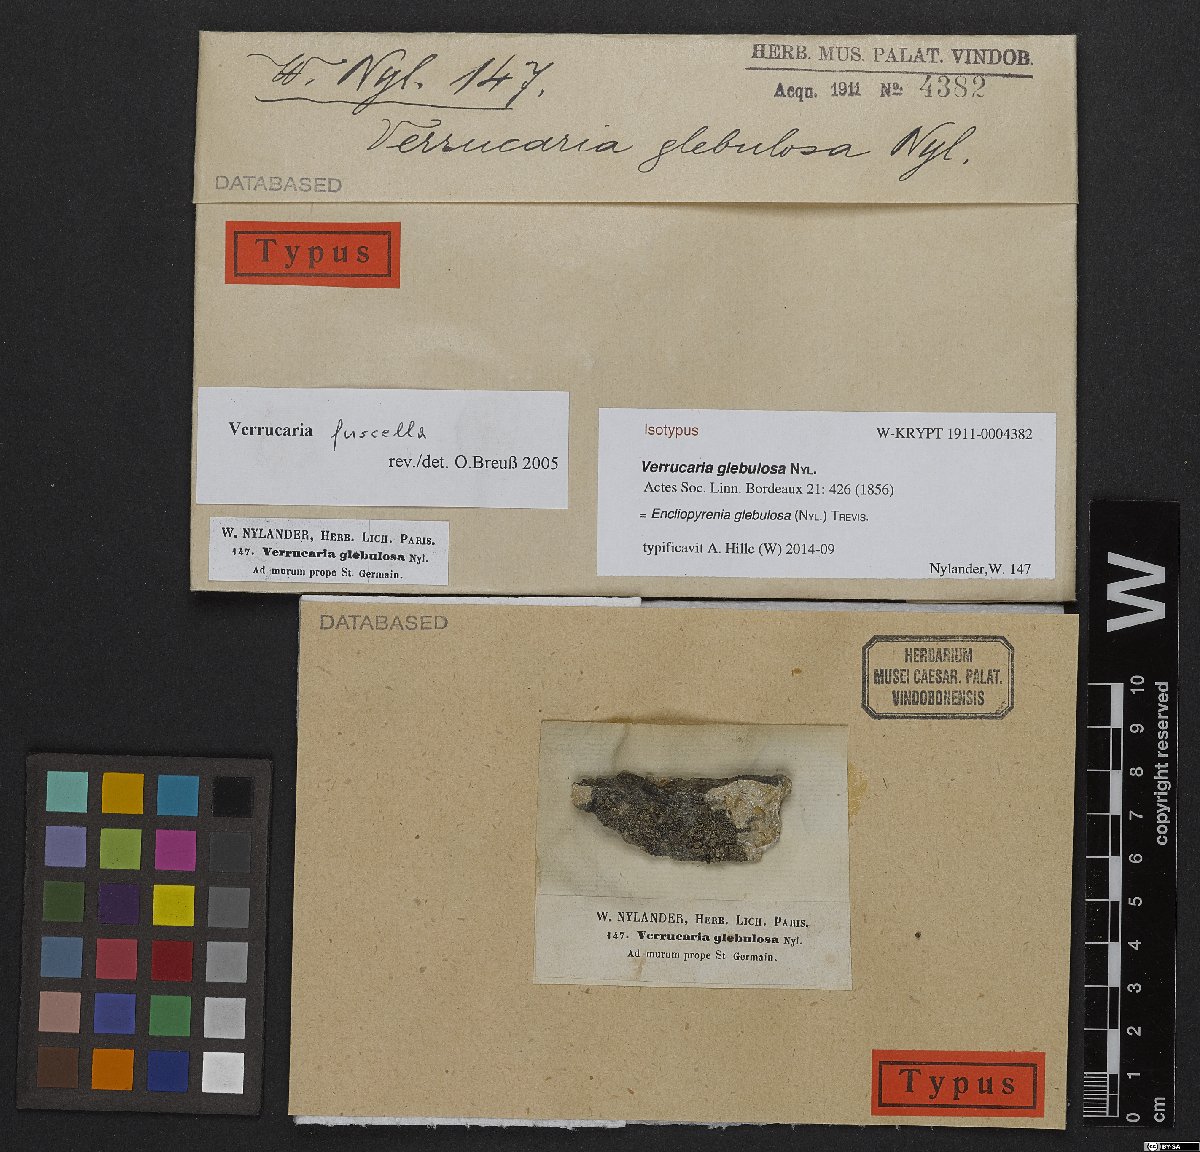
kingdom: Fungi
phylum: Ascomycota
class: Eurotiomycetes
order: Verrucariales
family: Verrucariaceae
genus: Verrucaria
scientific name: Verrucaria fuscella
